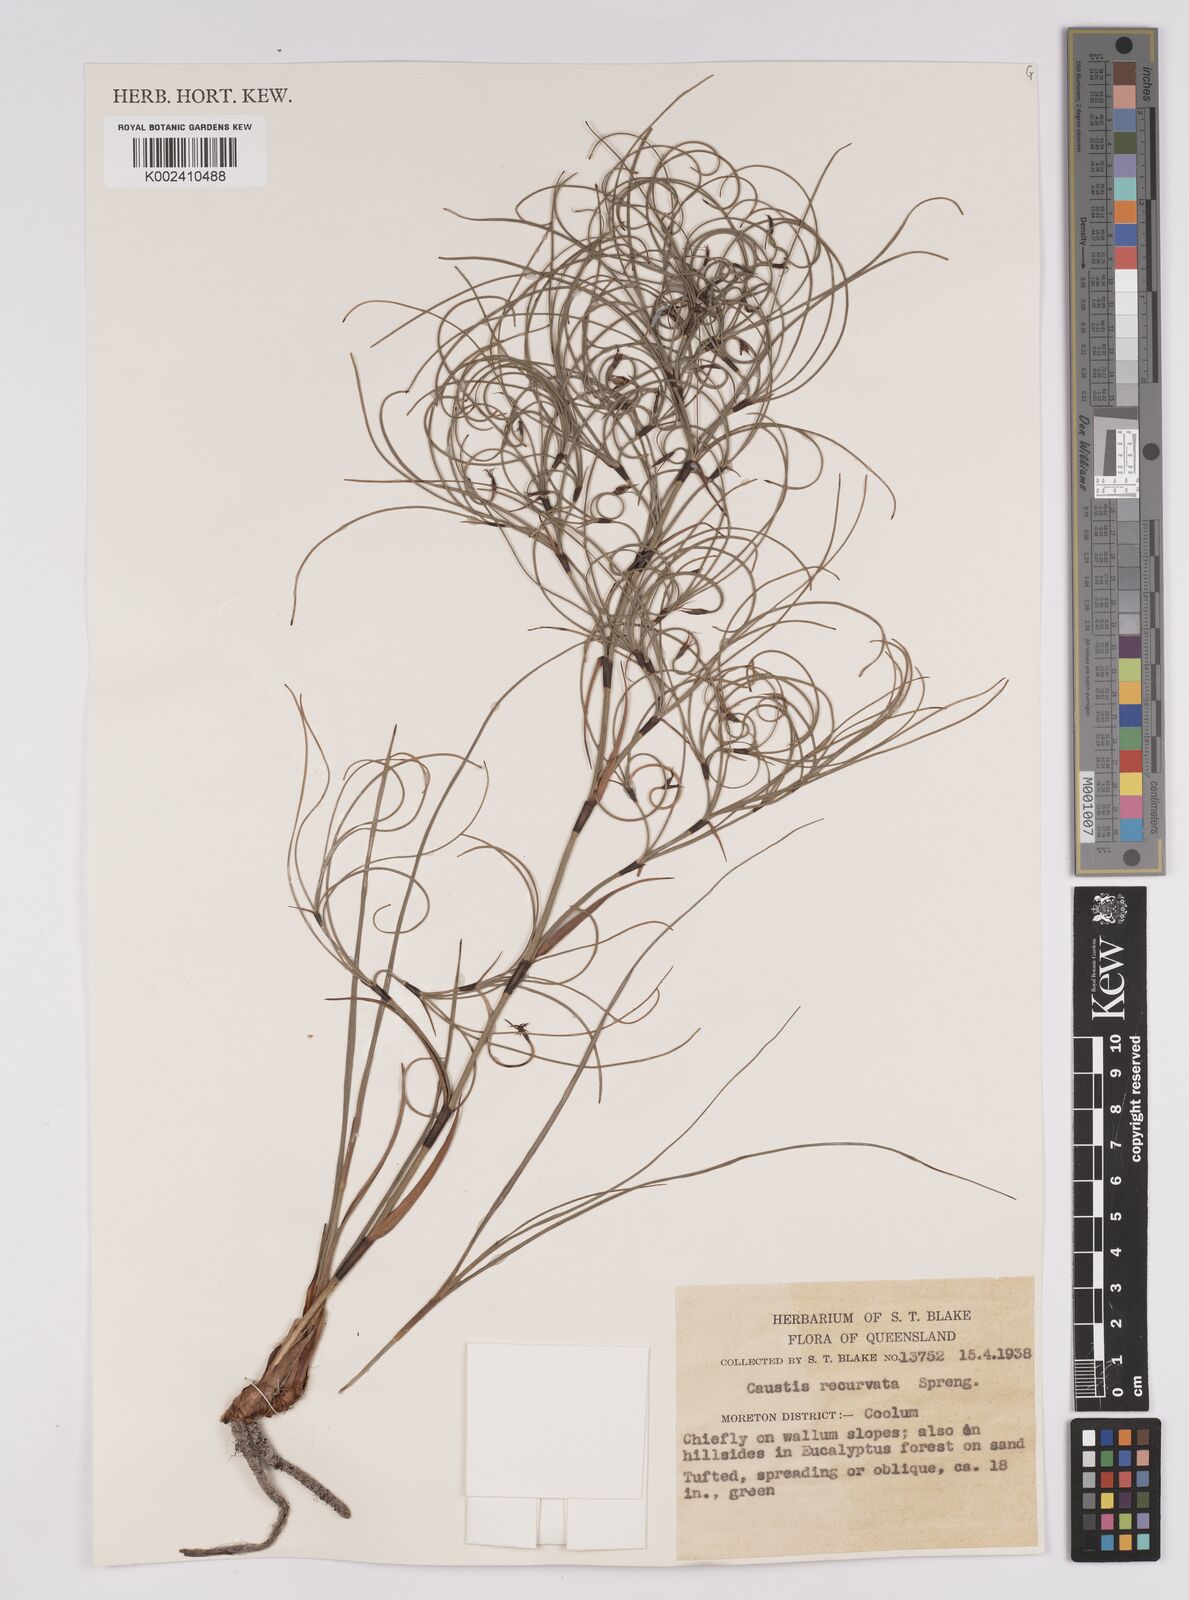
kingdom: Plantae
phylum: Tracheophyta
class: Liliopsida
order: Poales
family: Cyperaceae
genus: Caustis
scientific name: Caustis recurvata
